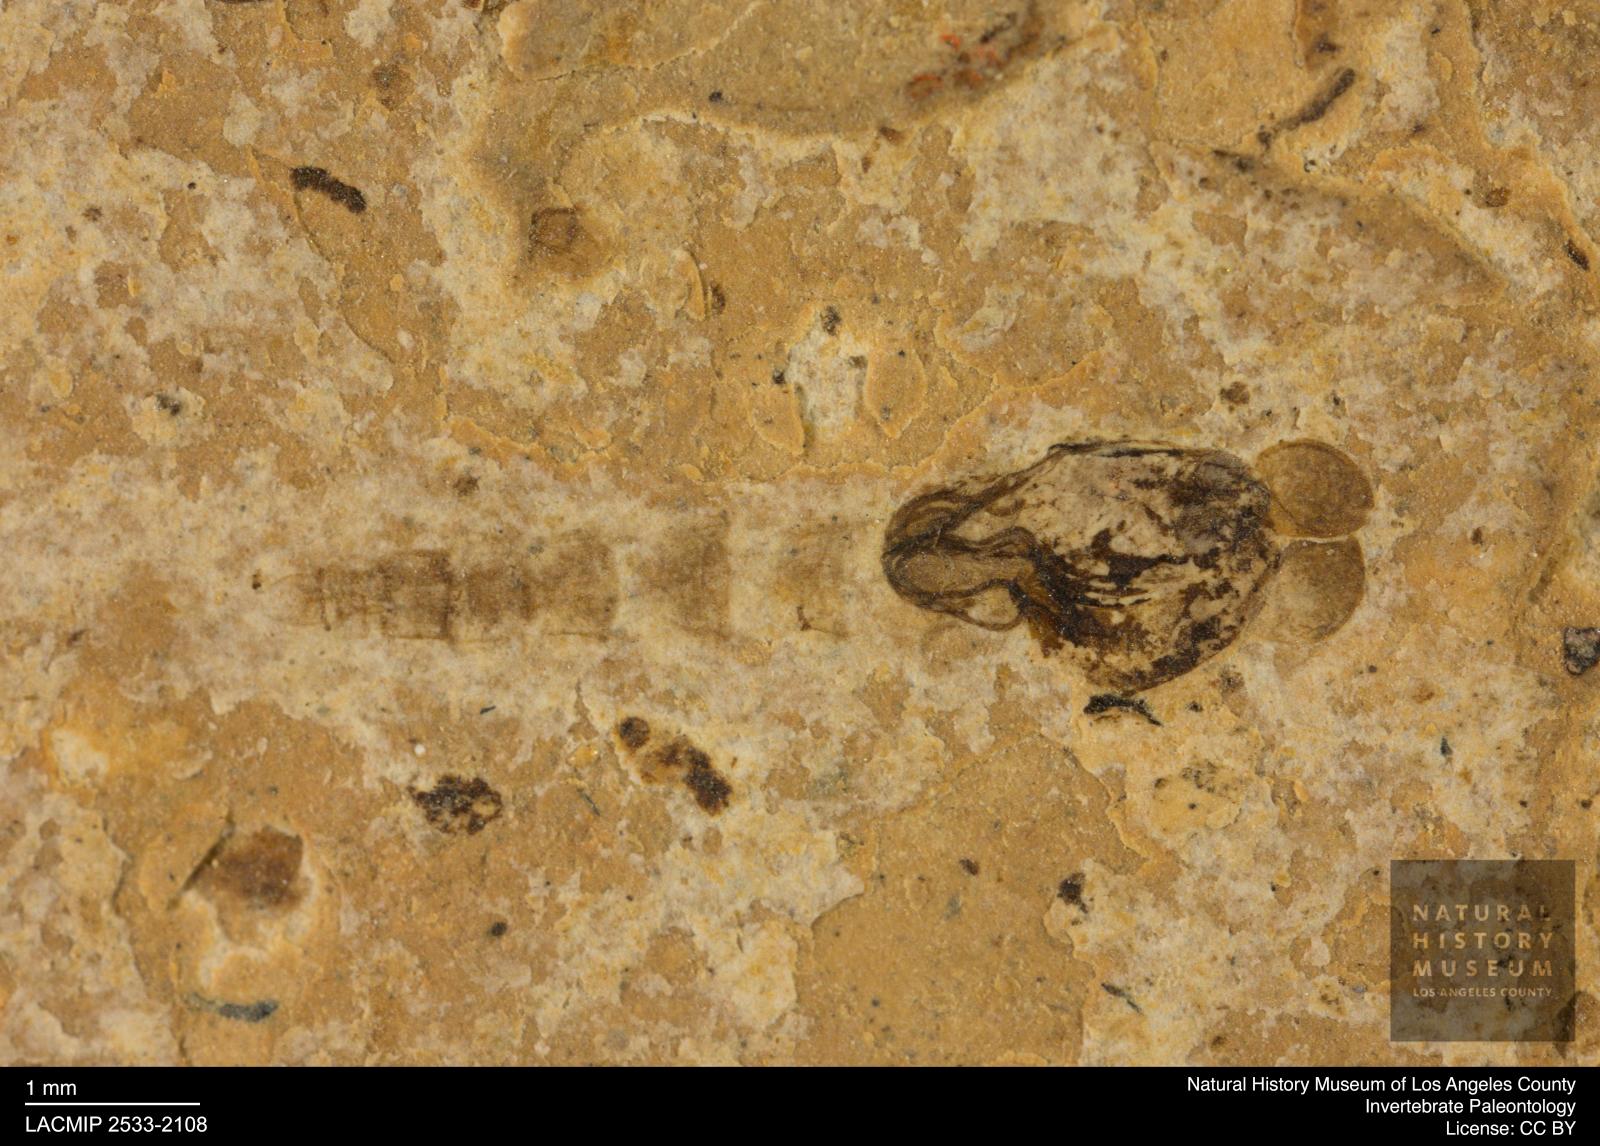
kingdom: Animalia
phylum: Arthropoda
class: Insecta
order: Diptera
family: Chironomidae
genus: Pelopiina
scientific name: Pelopiina
